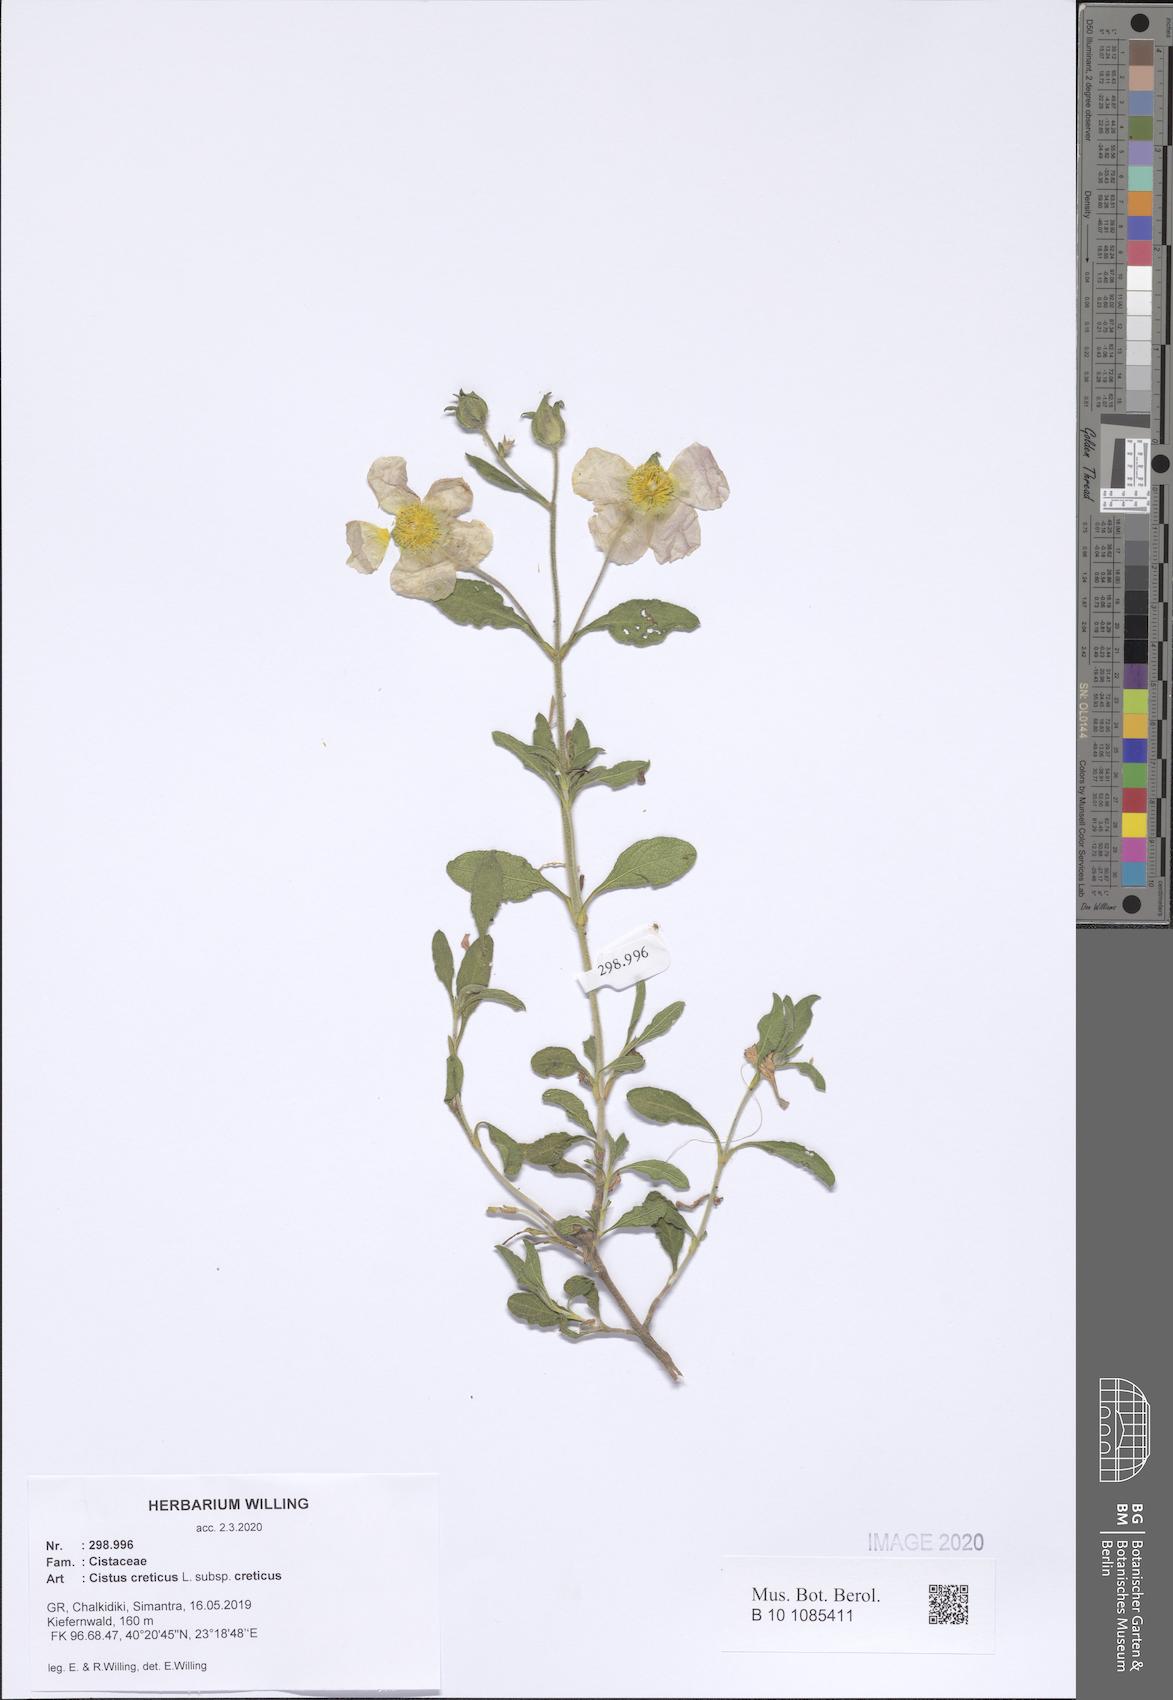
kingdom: Plantae
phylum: Tracheophyta
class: Magnoliopsida
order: Malvales
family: Cistaceae
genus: Cistus
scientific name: Cistus creticus
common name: Cretan rockrose
